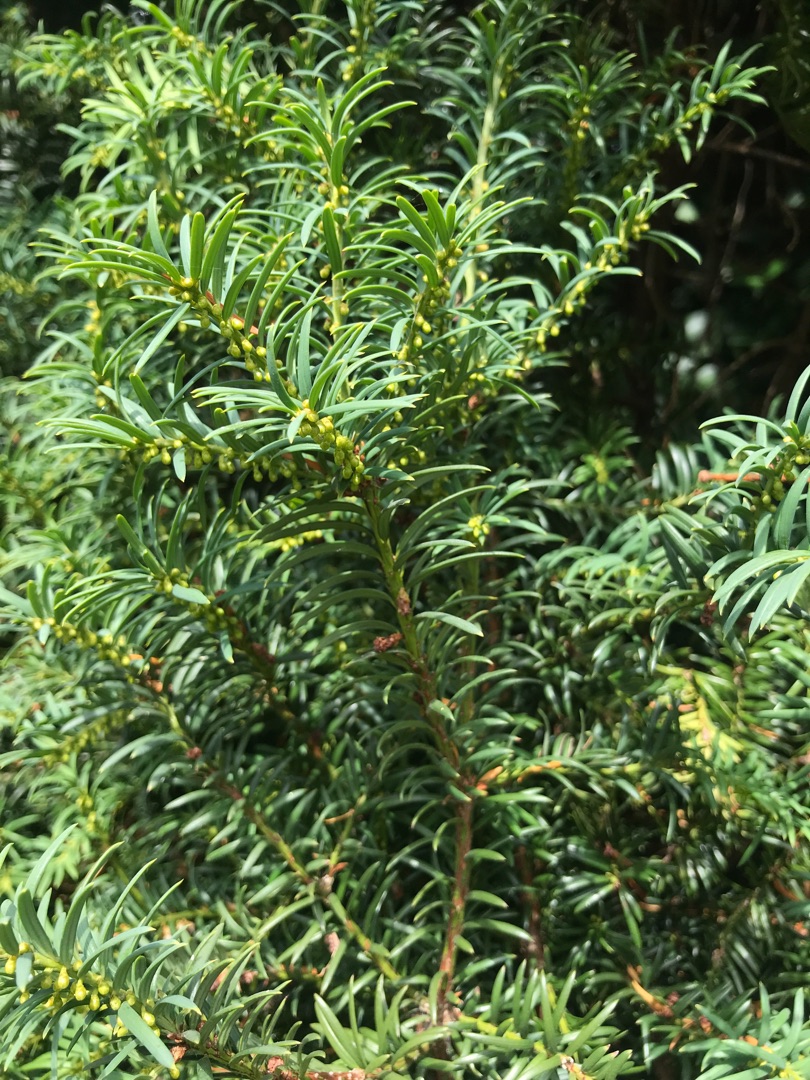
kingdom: Plantae
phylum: Tracheophyta
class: Pinopsida
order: Pinales
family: Taxaceae
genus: Taxus
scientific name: Taxus baccata
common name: Almindelig taks
